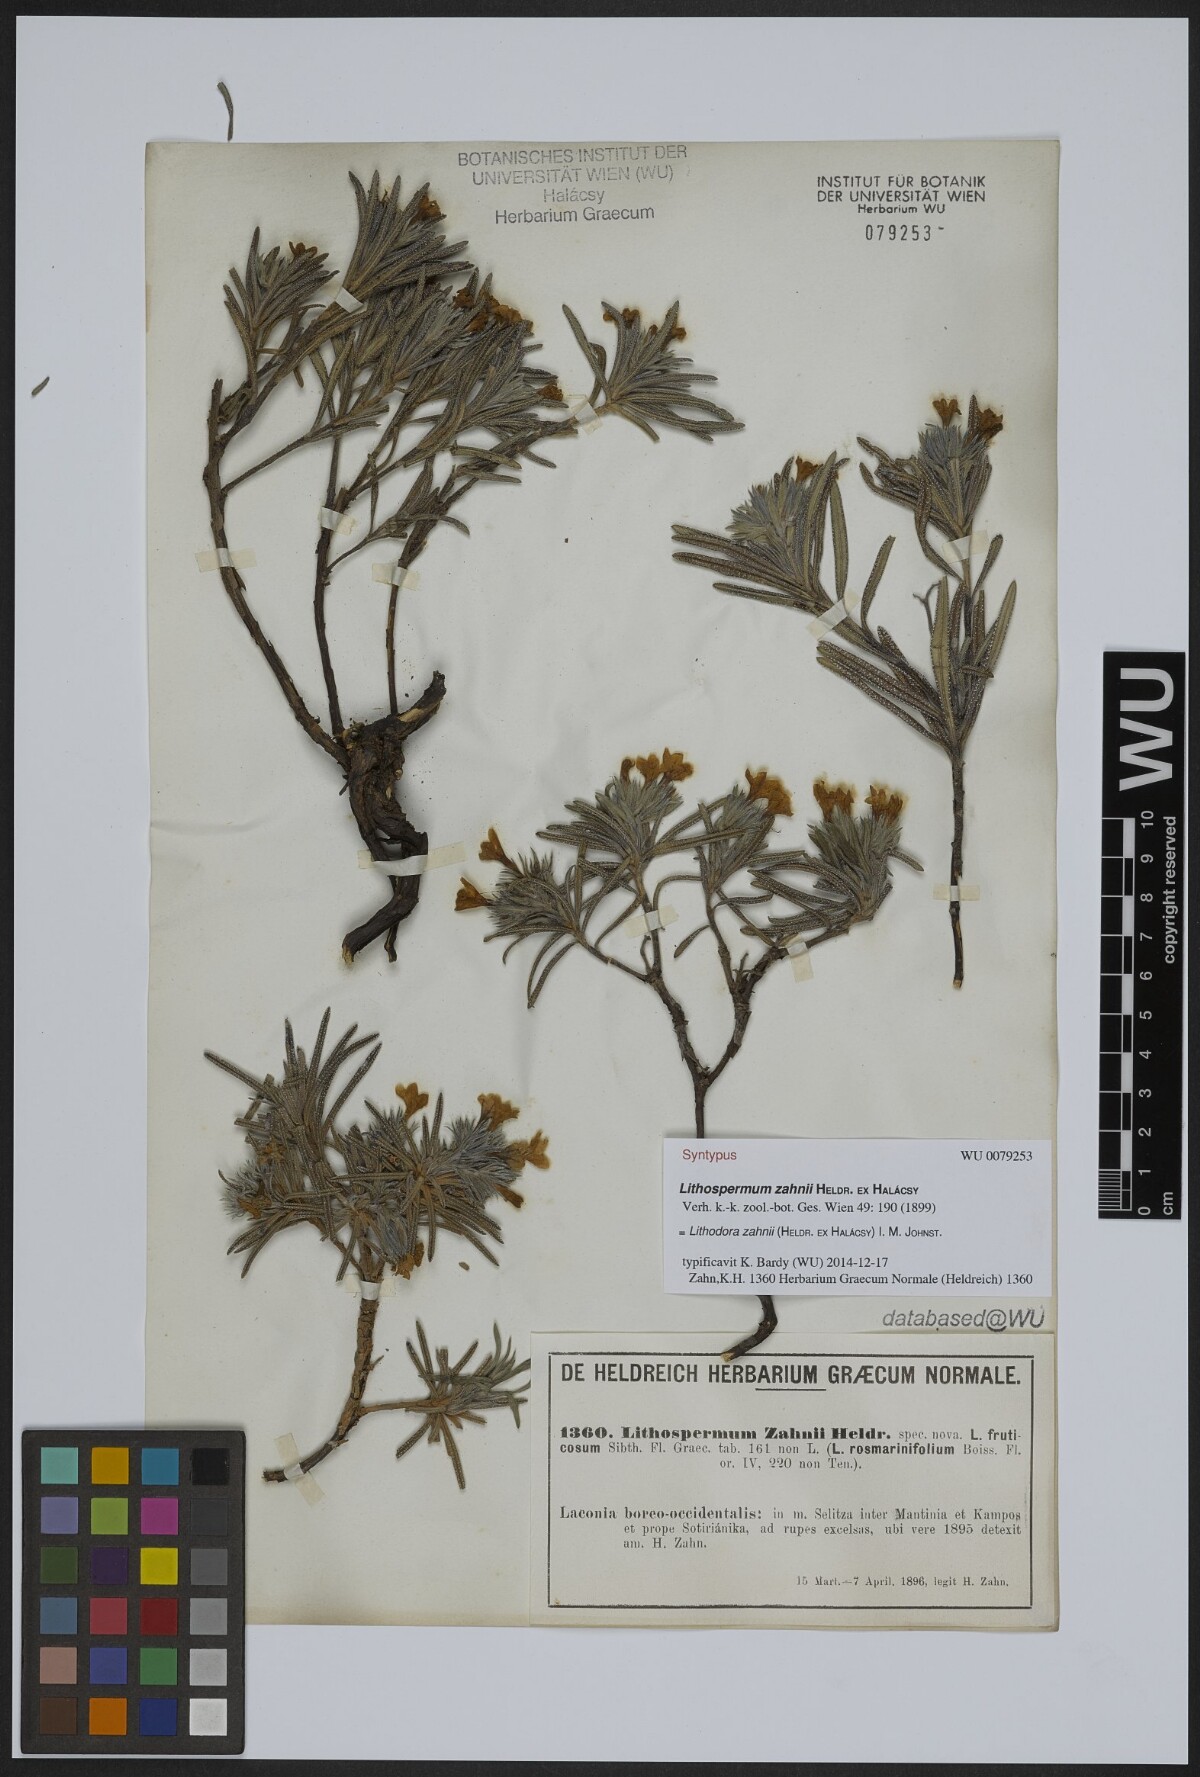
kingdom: Plantae
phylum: Tracheophyta
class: Magnoliopsida
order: Boraginales
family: Boraginaceae
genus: Lithodora
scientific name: Lithodora zahnii
